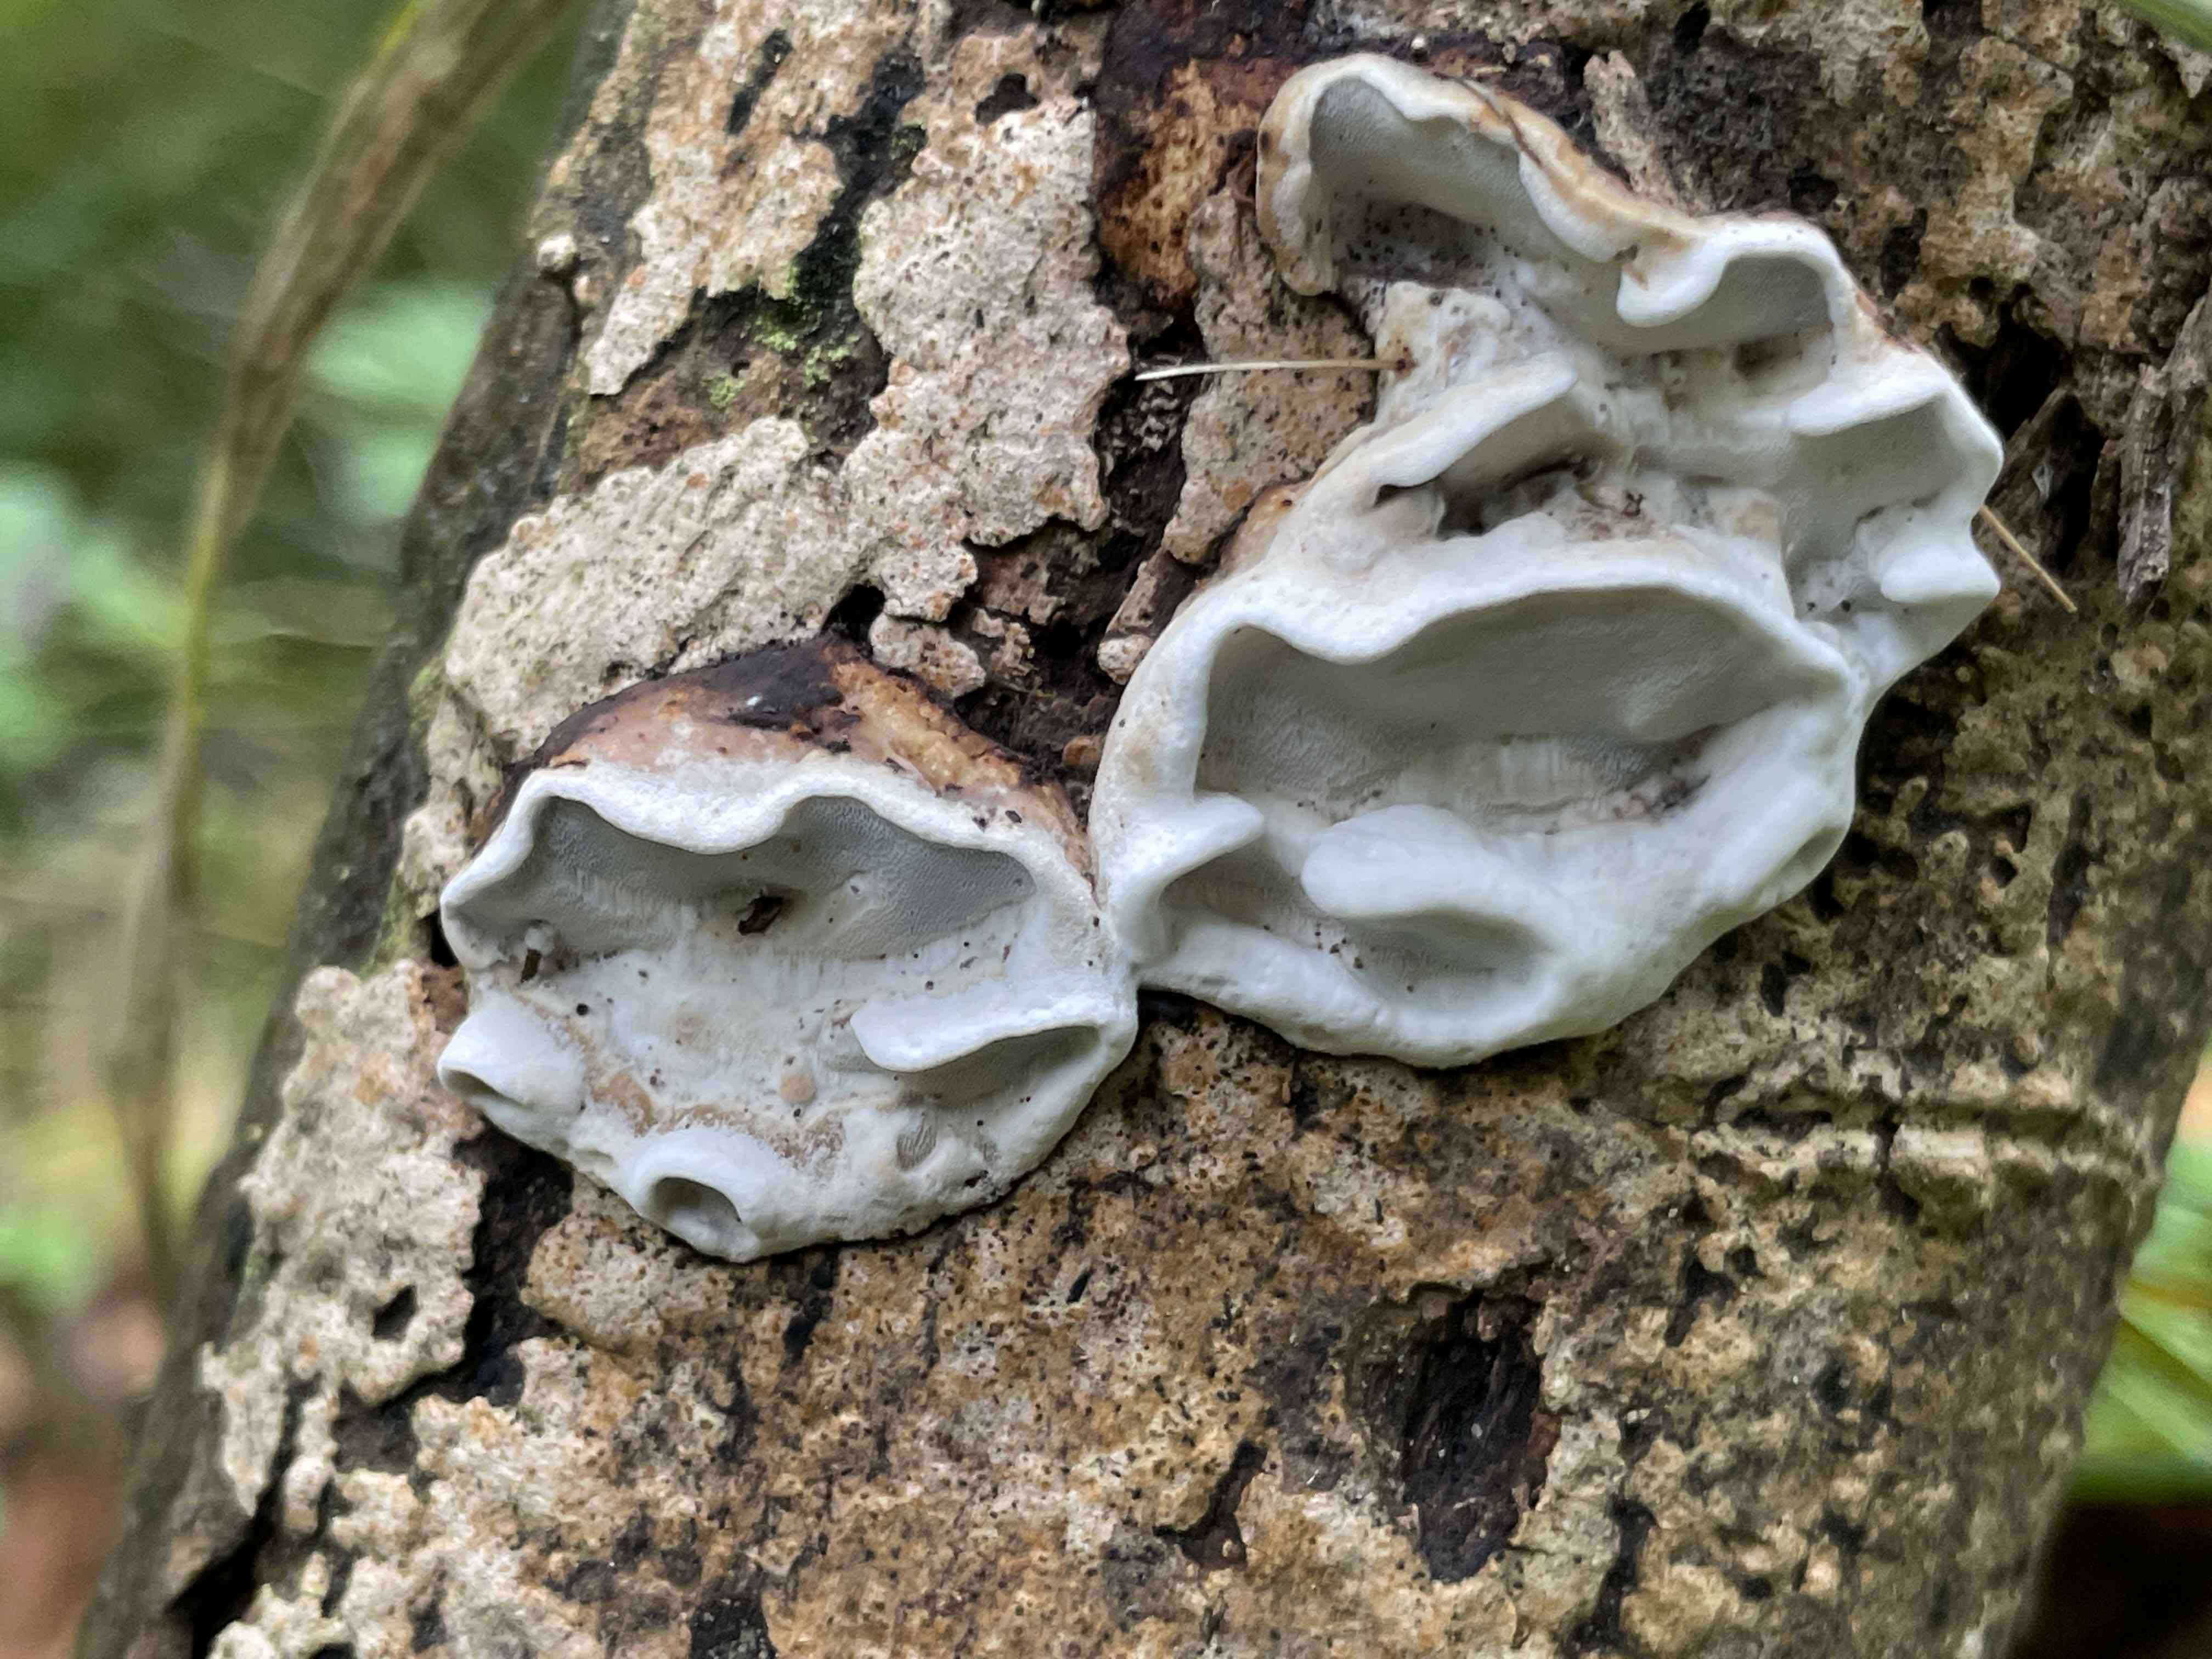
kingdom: Fungi
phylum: Basidiomycota
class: Agaricomycetes
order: Polyporales
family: Incrustoporiaceae
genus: Skeletocutis
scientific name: Skeletocutis nemoralis
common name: stor krystalporesvamp
